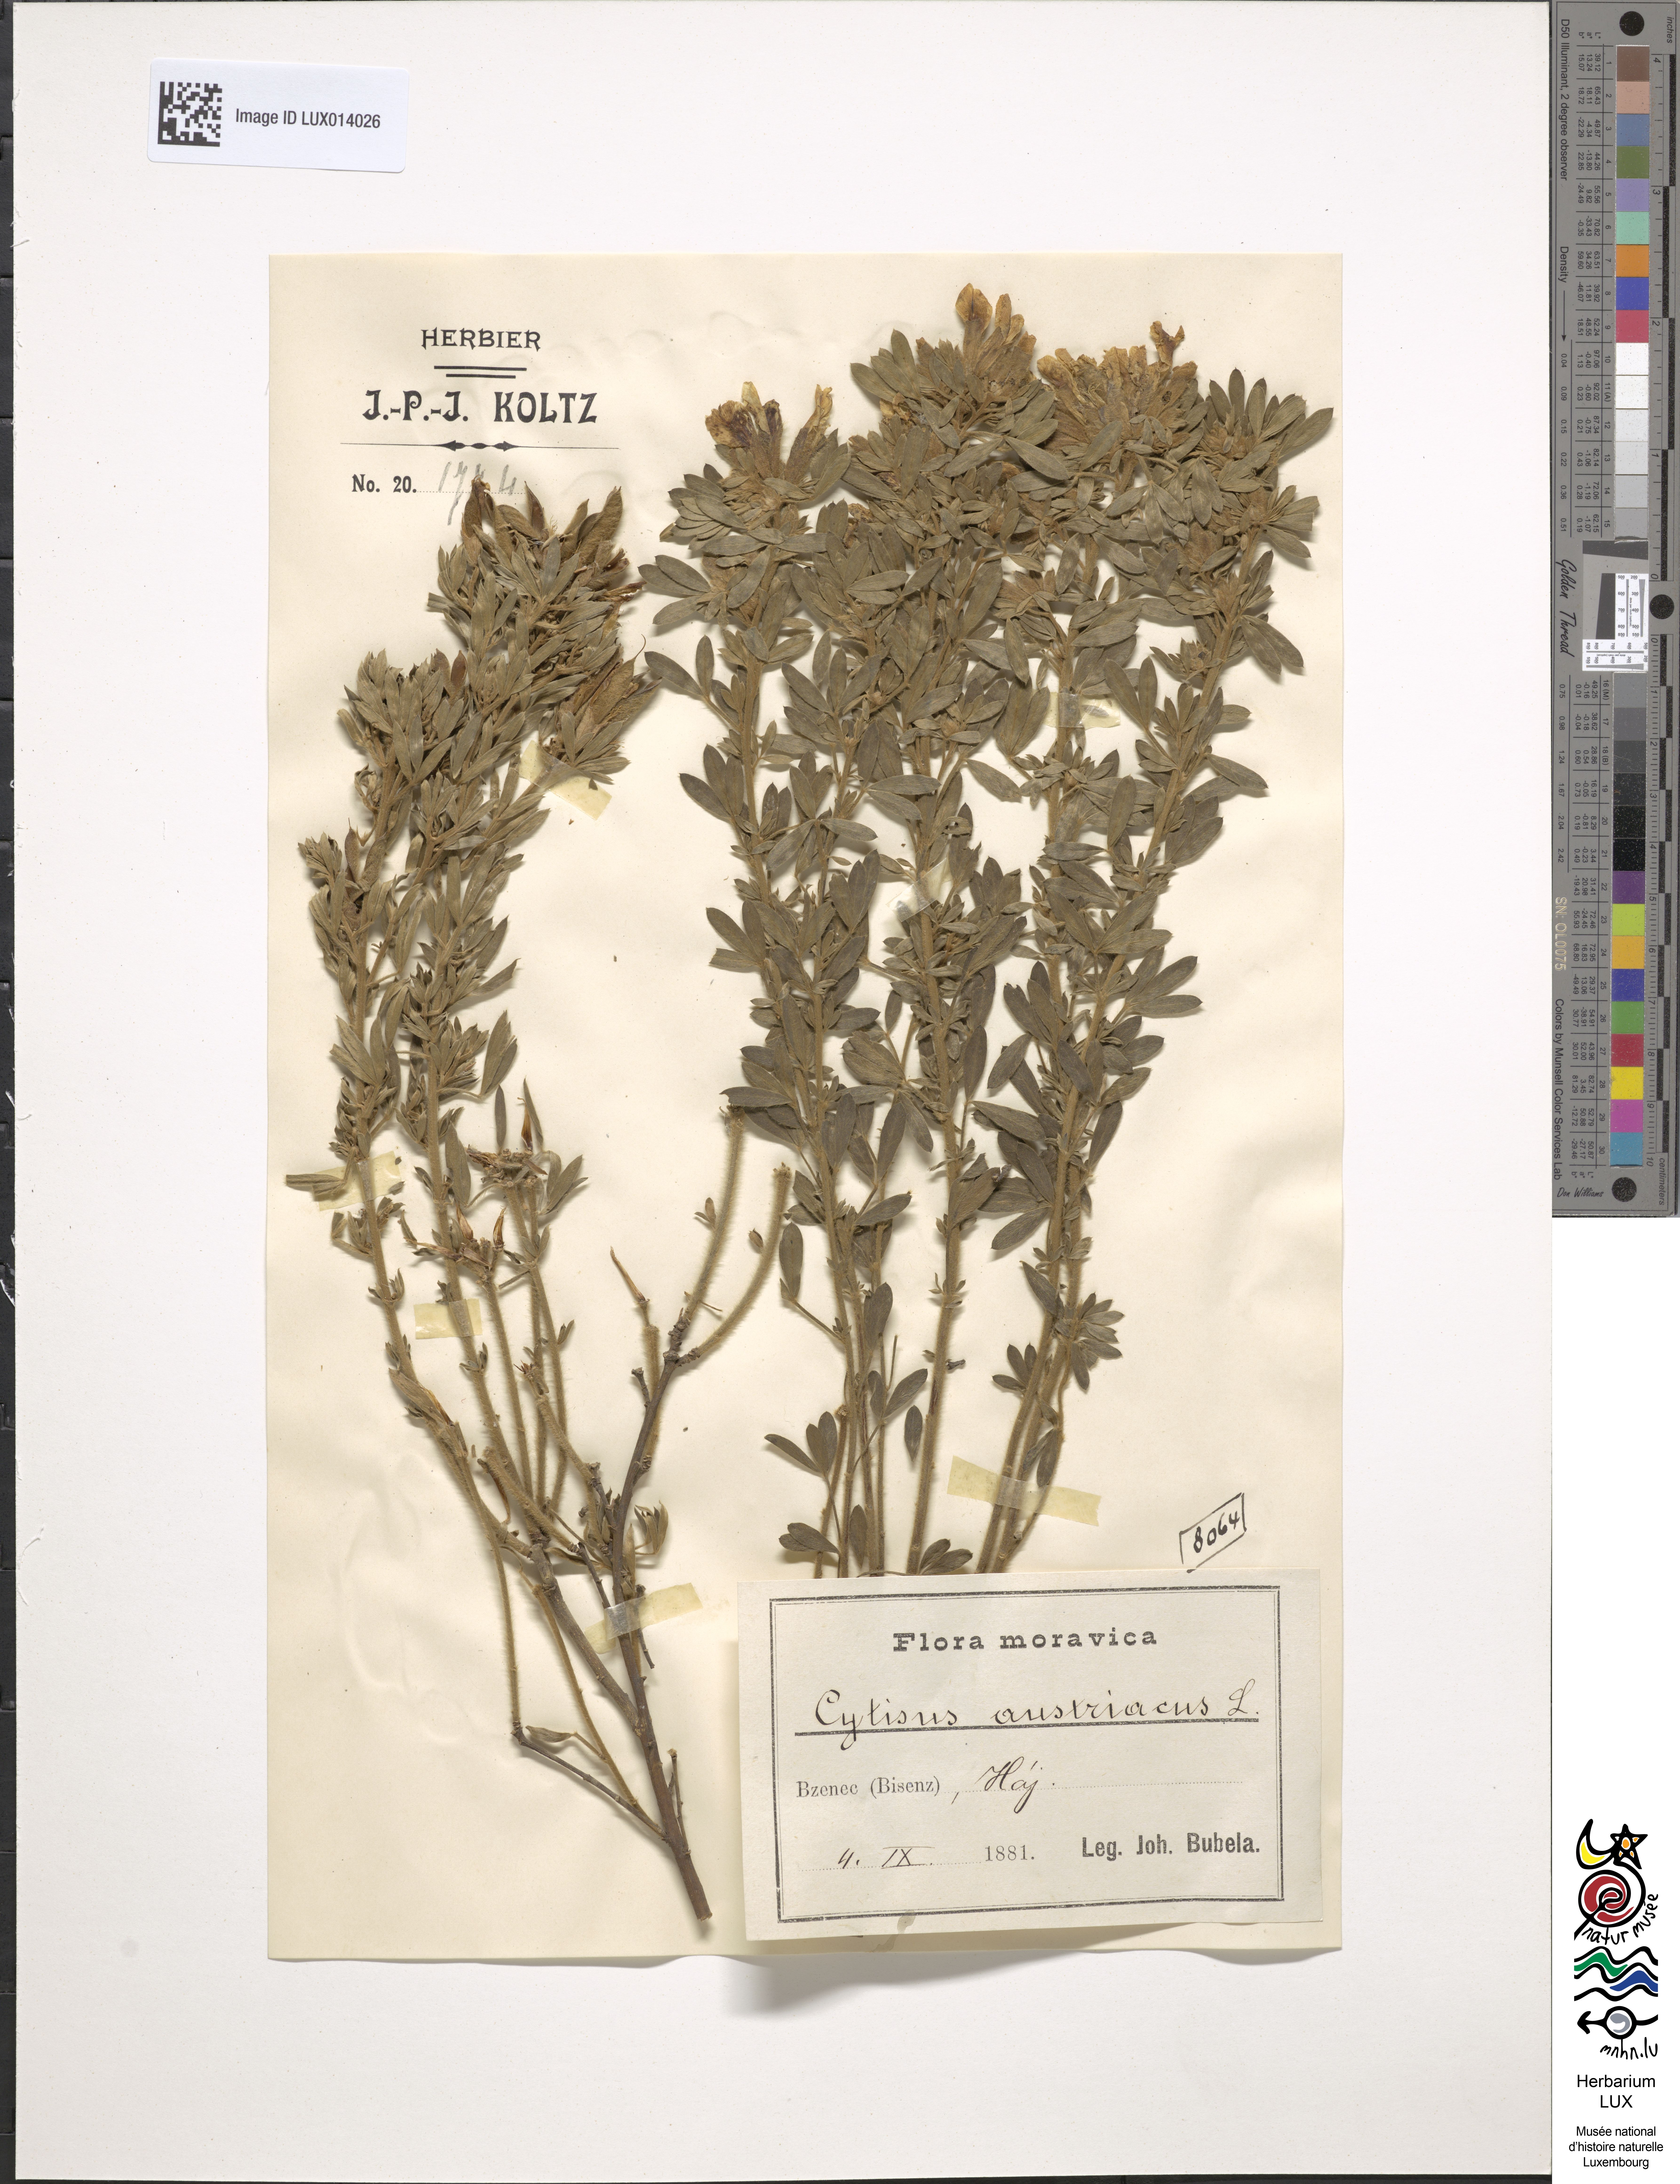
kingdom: Plantae
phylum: Tracheophyta
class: Magnoliopsida
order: Fabales
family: Fabaceae
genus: Chamaecytisus
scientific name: Chamaecytisus austriacus
